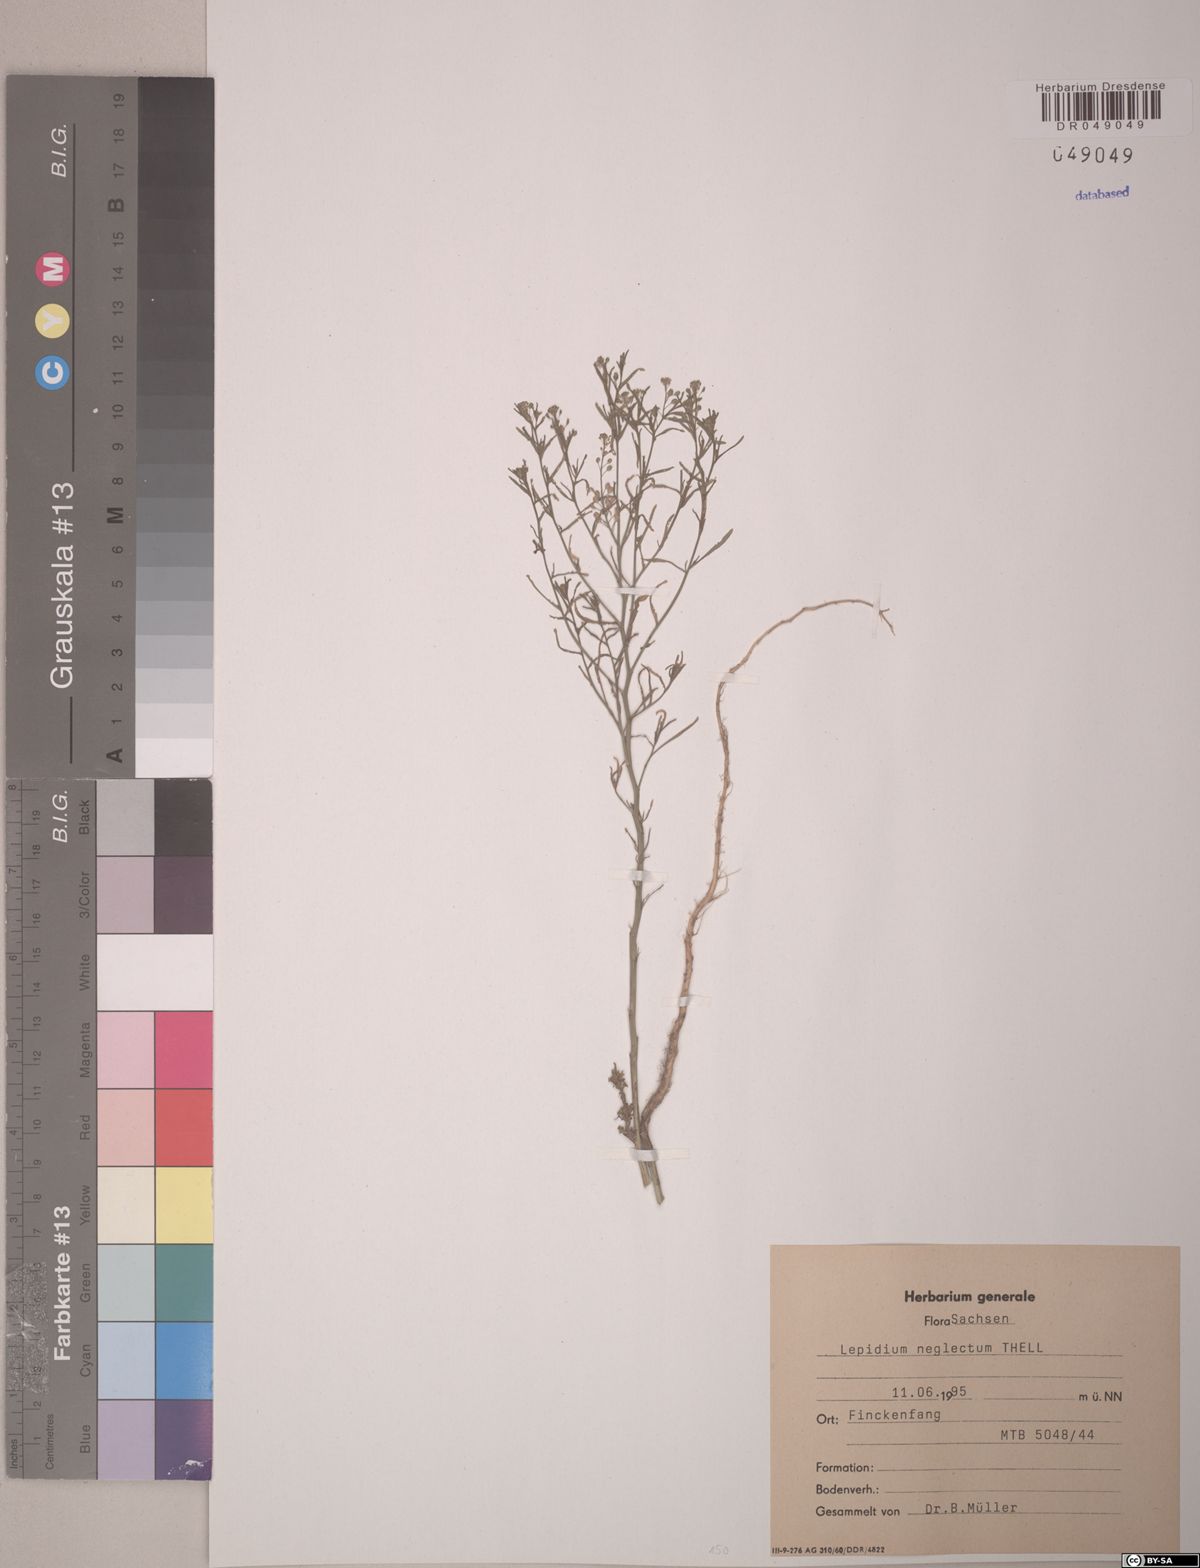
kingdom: Plantae
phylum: Tracheophyta
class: Magnoliopsida
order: Brassicales
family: Brassicaceae
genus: Lepidium
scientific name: Lepidium densiflorum
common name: Miner's pepperwort
